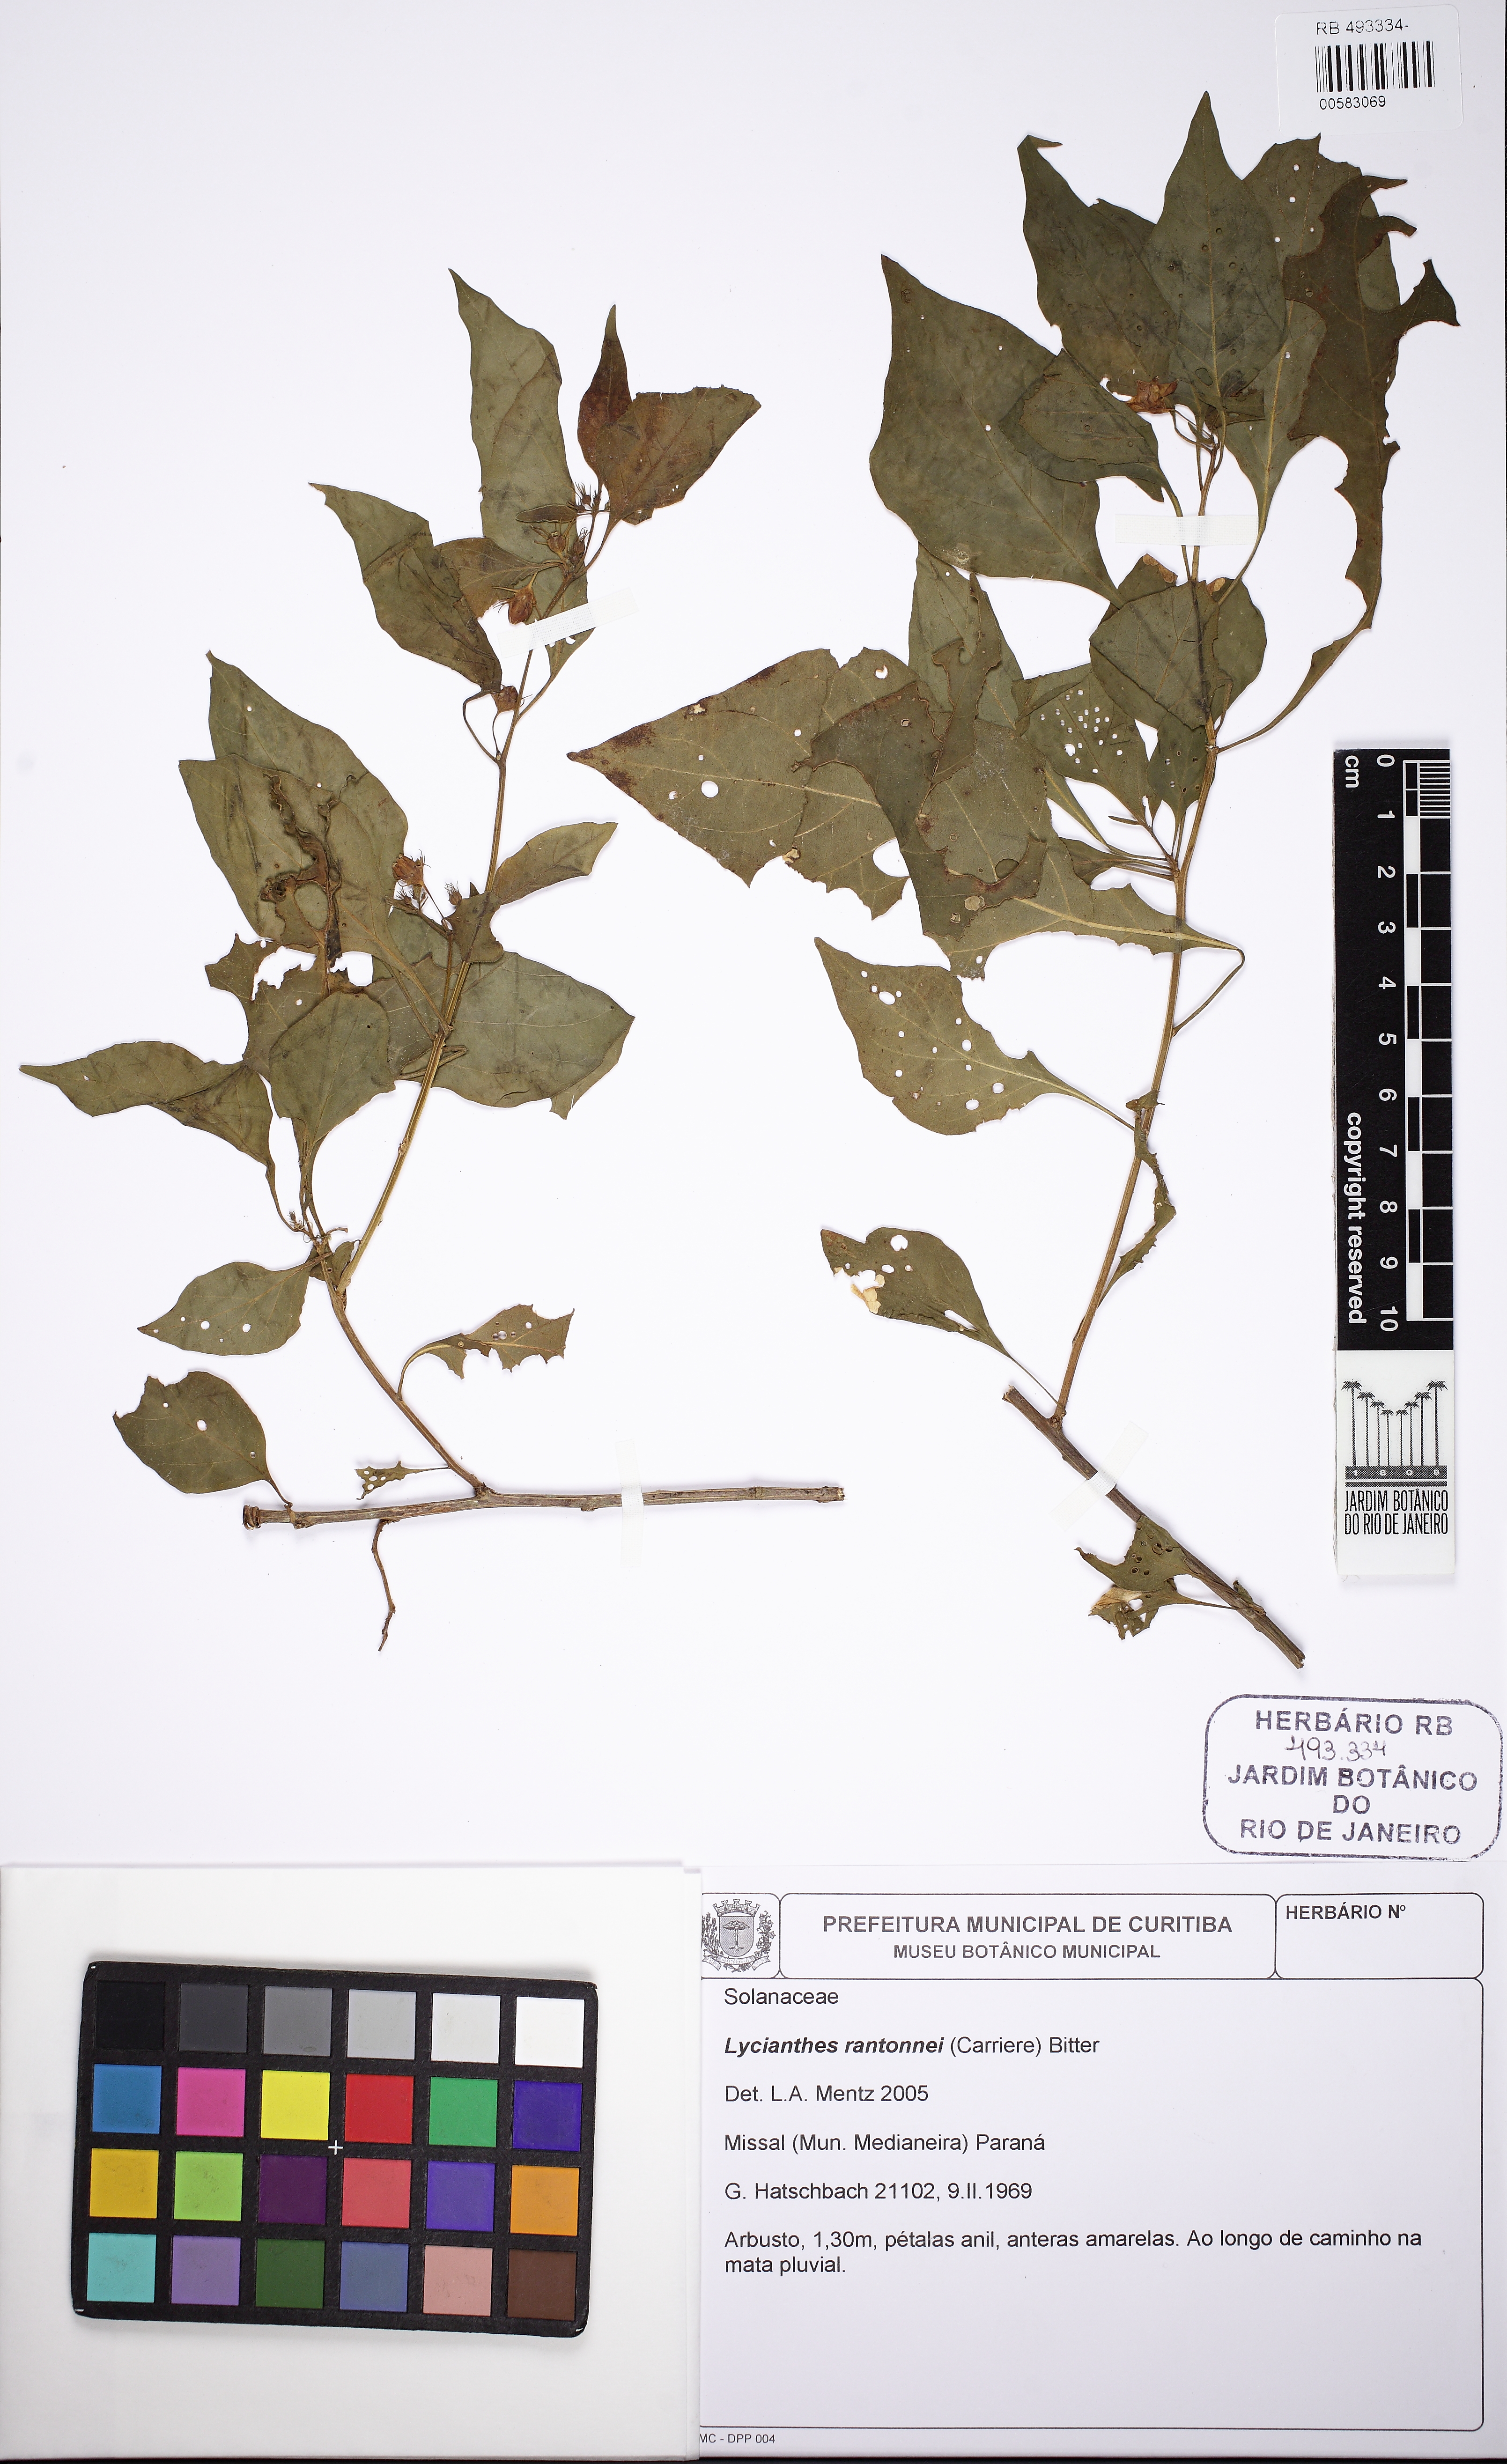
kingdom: Plantae
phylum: Tracheophyta
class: Magnoliopsida
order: Solanales
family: Solanaceae
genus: Lycianthes
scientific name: Lycianthes rantonnetii
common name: Blue potatobush
